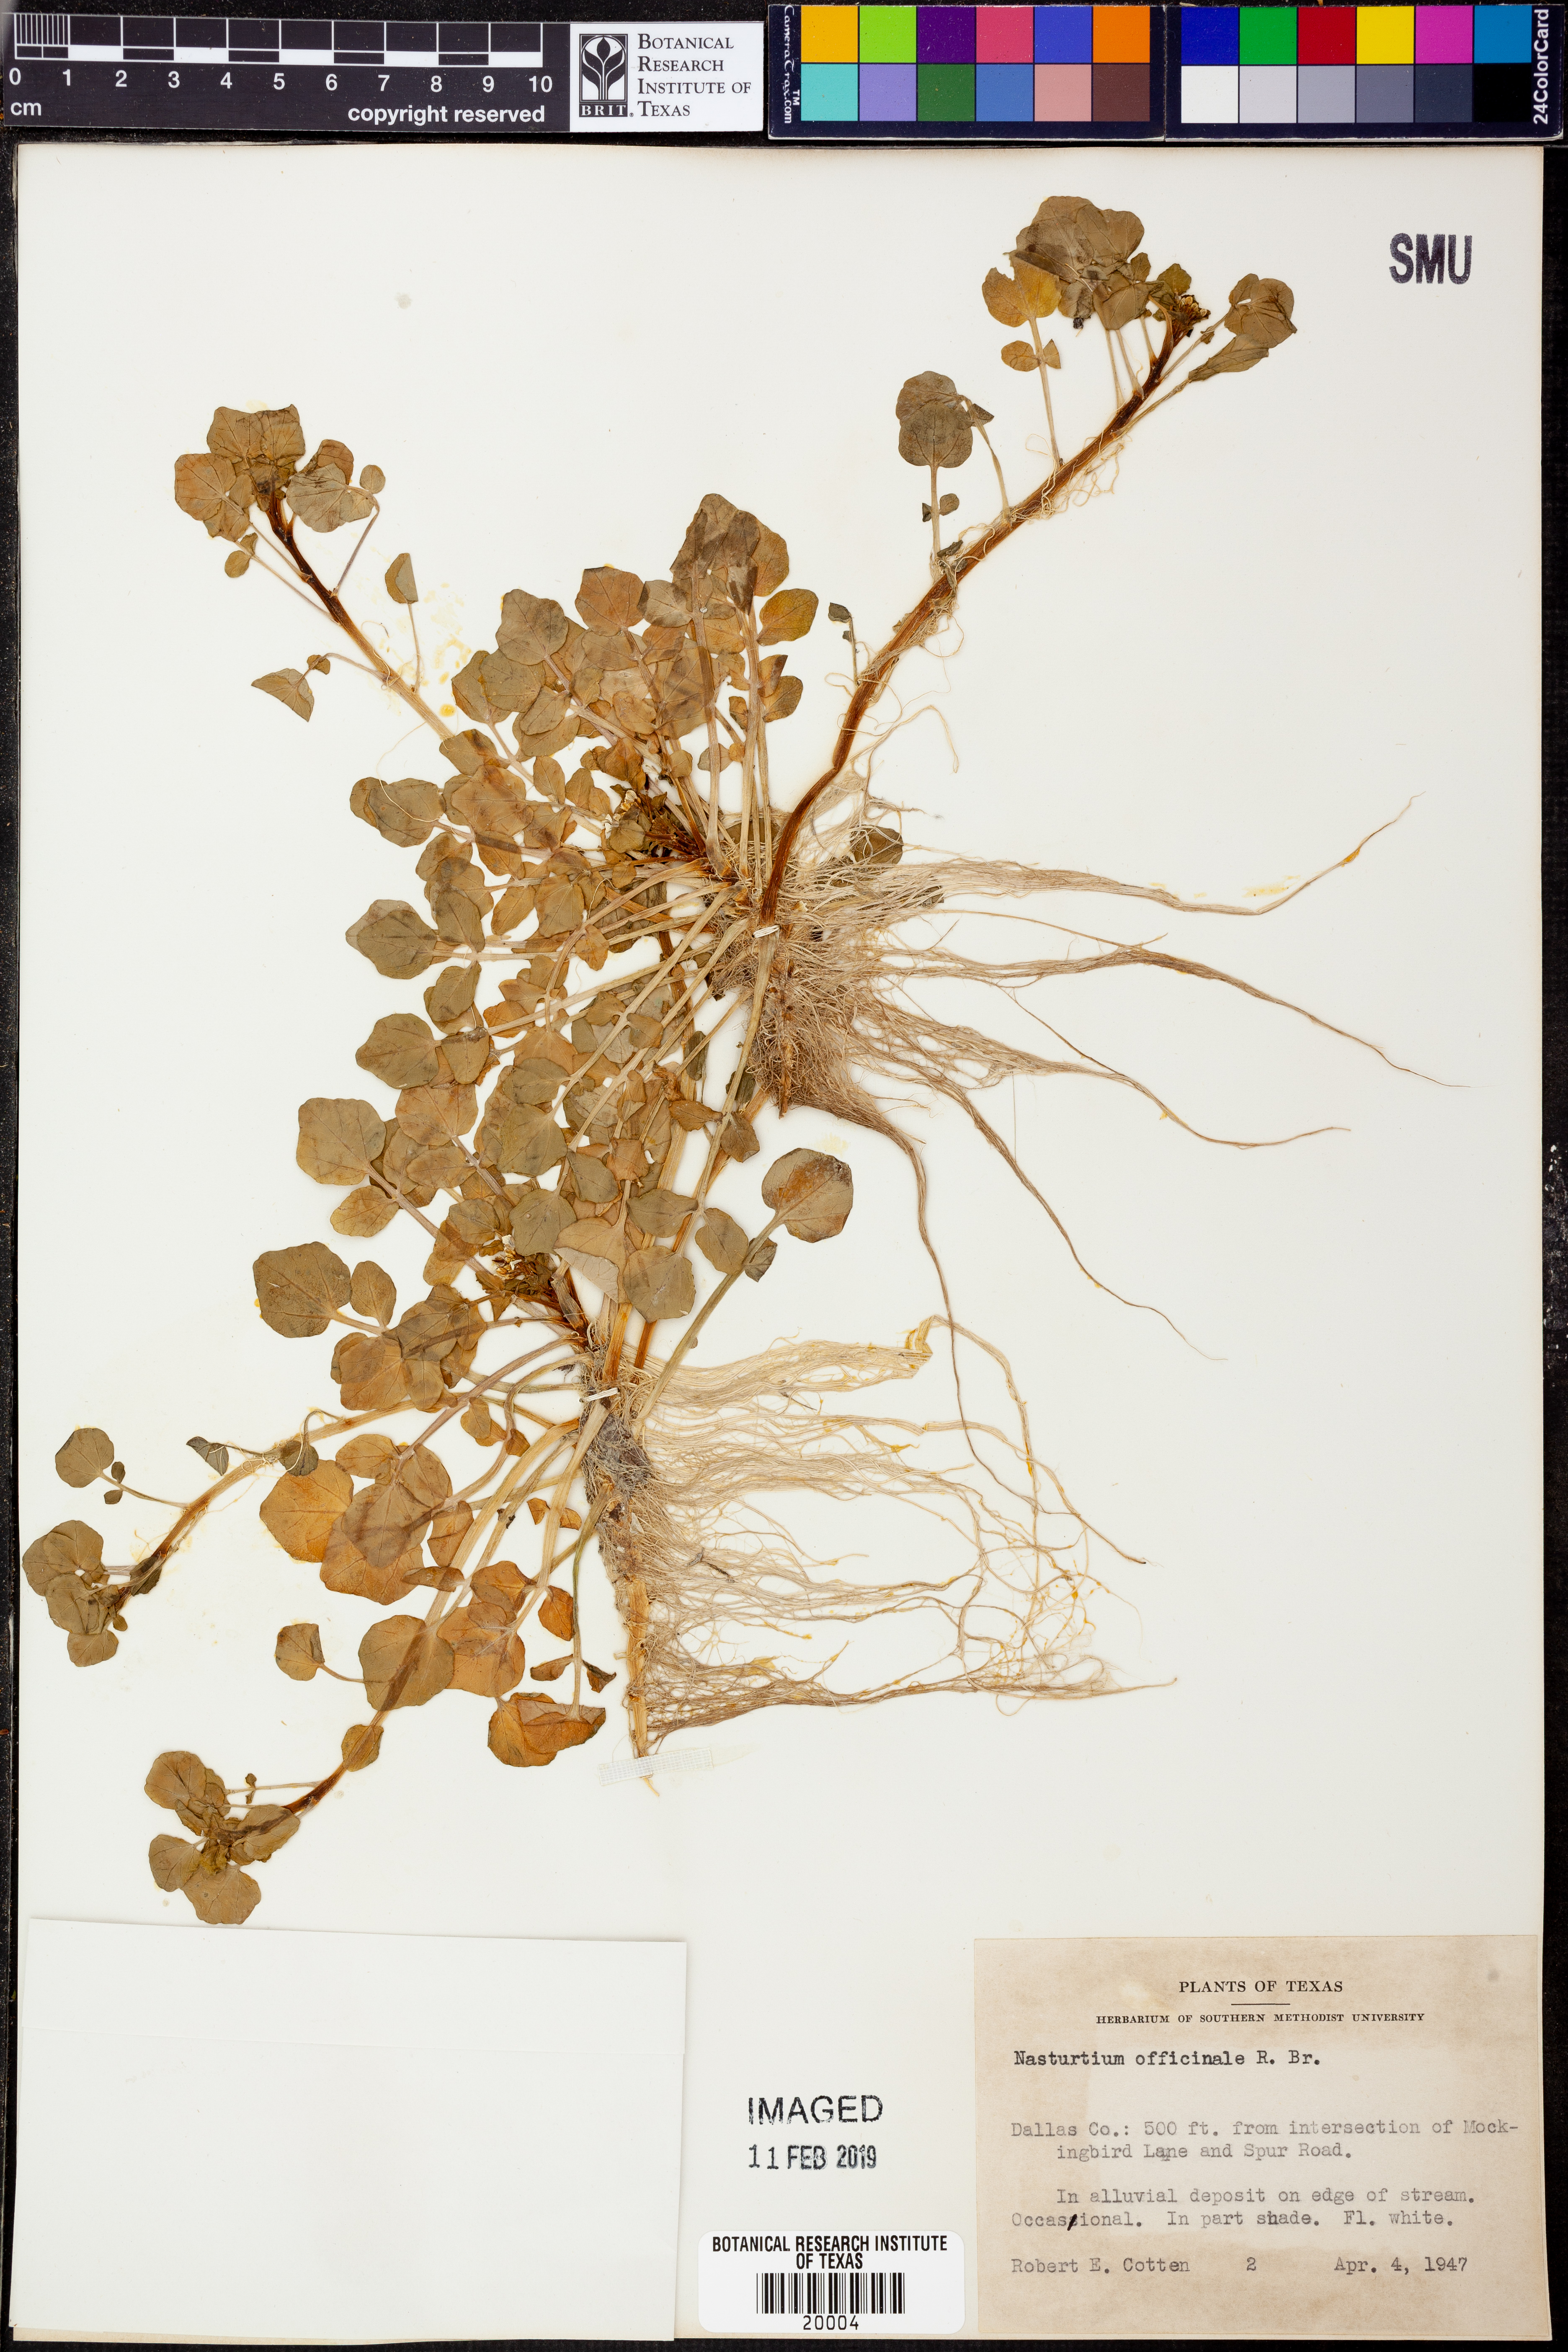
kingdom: Plantae
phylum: Tracheophyta
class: Magnoliopsida
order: Brassicales
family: Brassicaceae
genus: Nasturtium
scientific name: Nasturtium officinale
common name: Watercress
